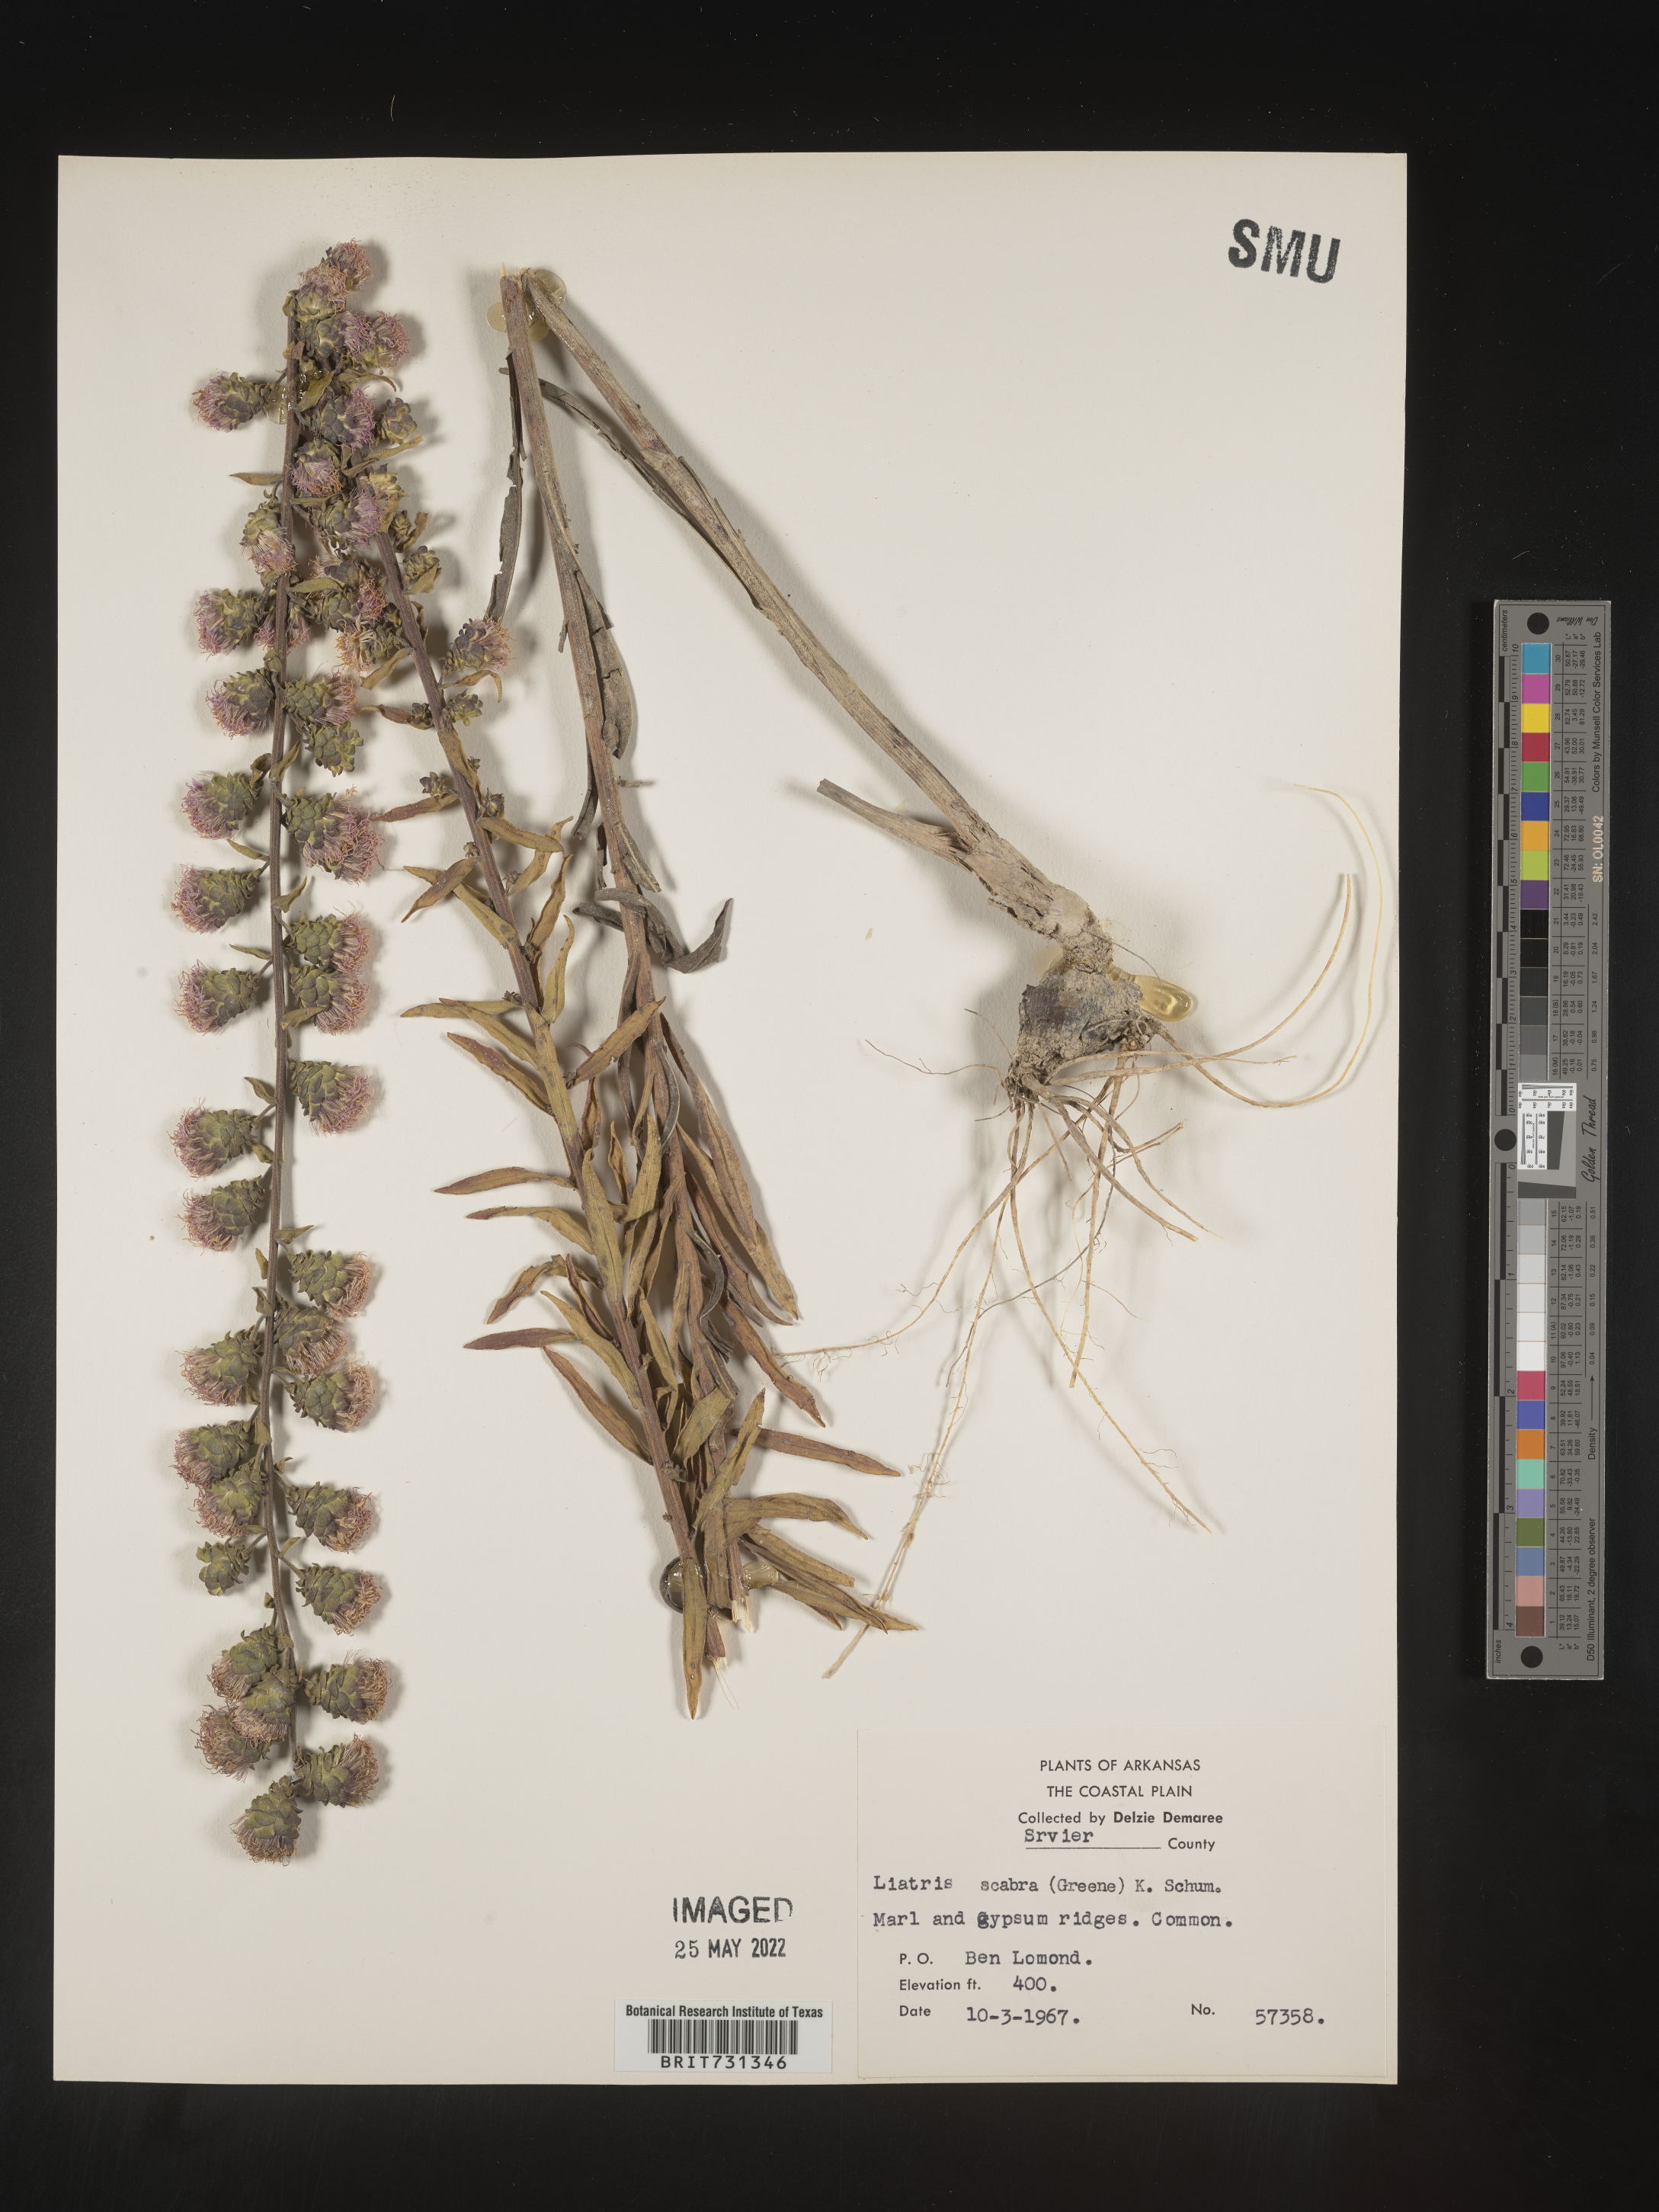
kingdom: Plantae
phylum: Tracheophyta
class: Magnoliopsida
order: Asterales
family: Asteraceae
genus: Liatris
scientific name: Liatris squarrulosa
